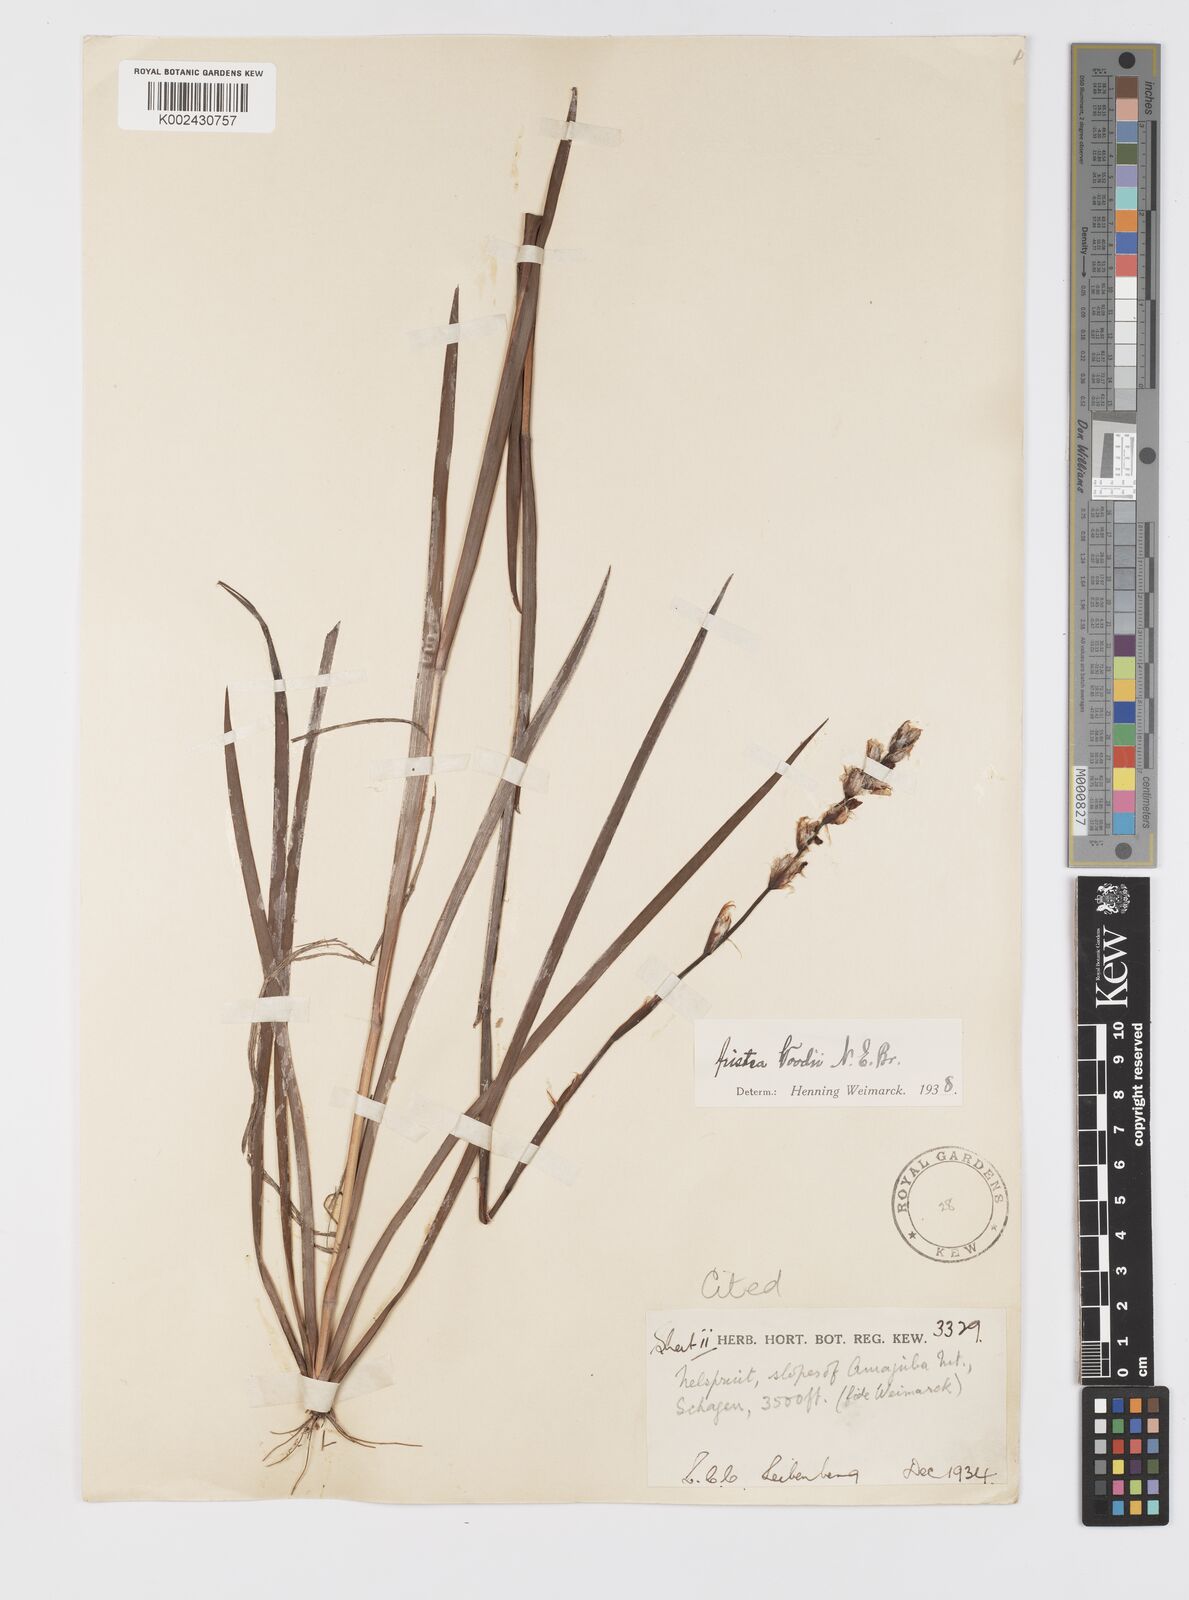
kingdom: Plantae
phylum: Tracheophyta
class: Liliopsida
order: Asparagales
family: Iridaceae
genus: Aristea
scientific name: Aristea torulosa
